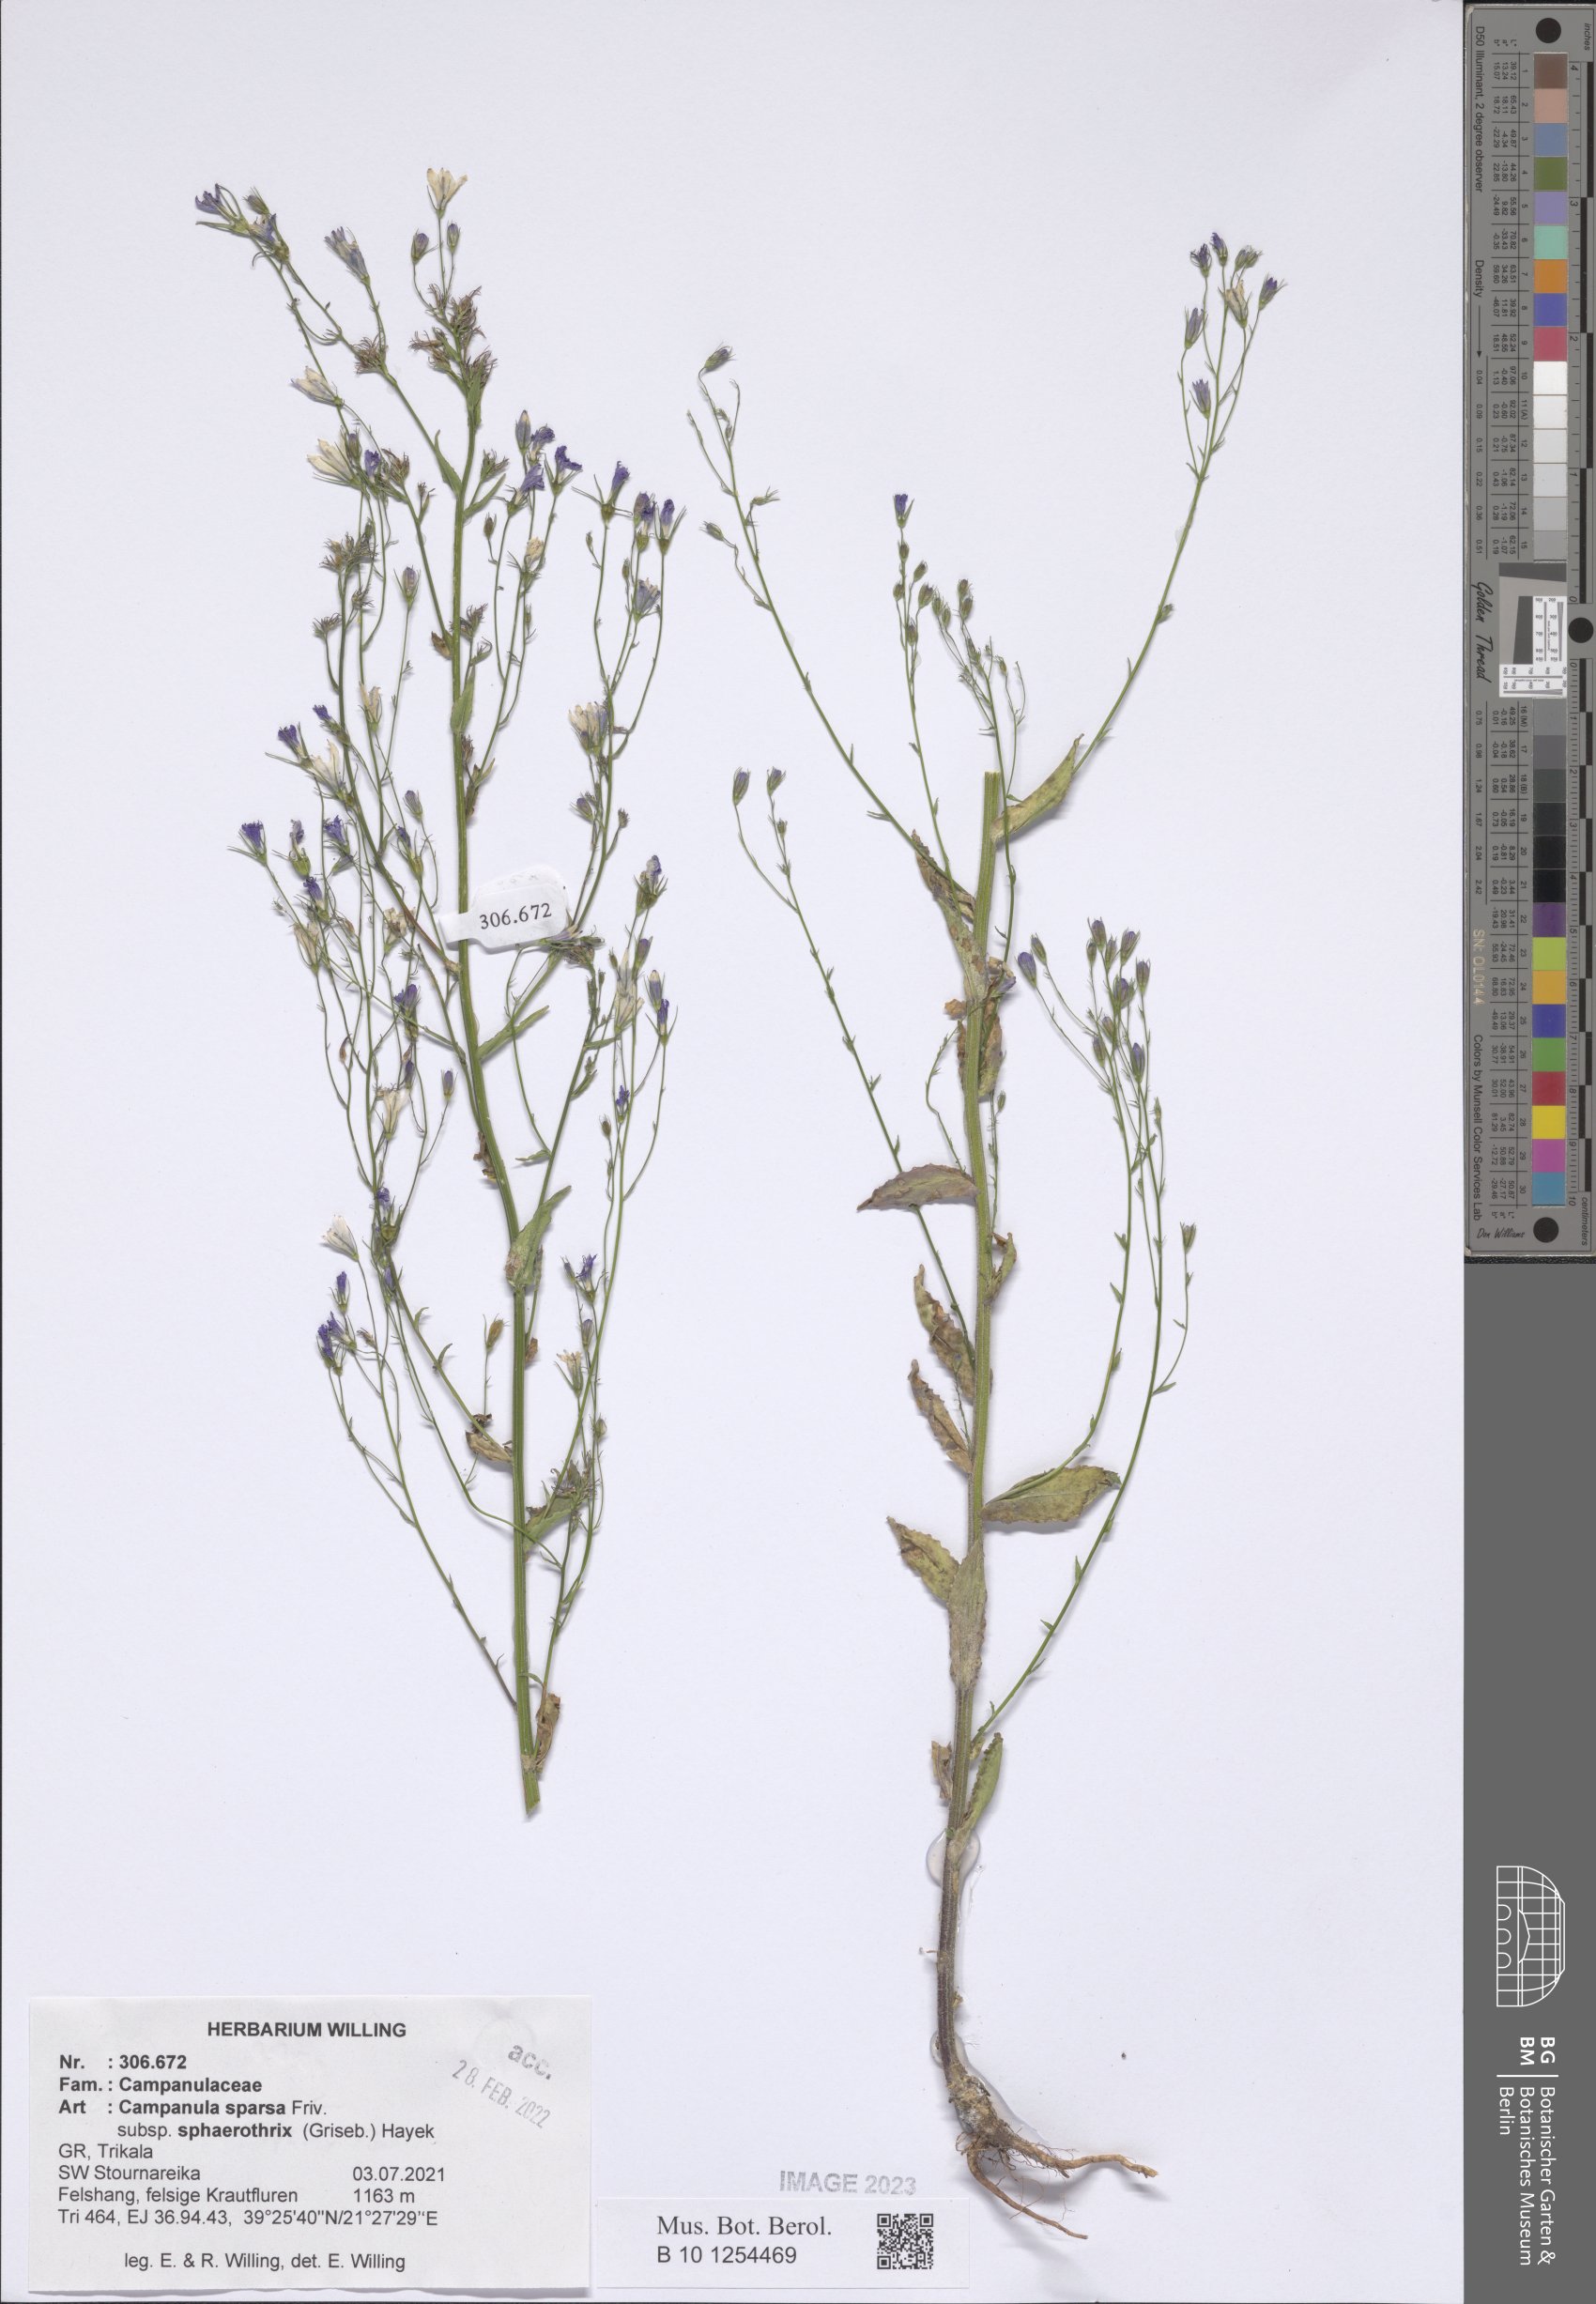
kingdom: Plantae
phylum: Tracheophyta
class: Magnoliopsida
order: Asterales
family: Campanulaceae
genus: Campanula
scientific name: Campanula sparsa
